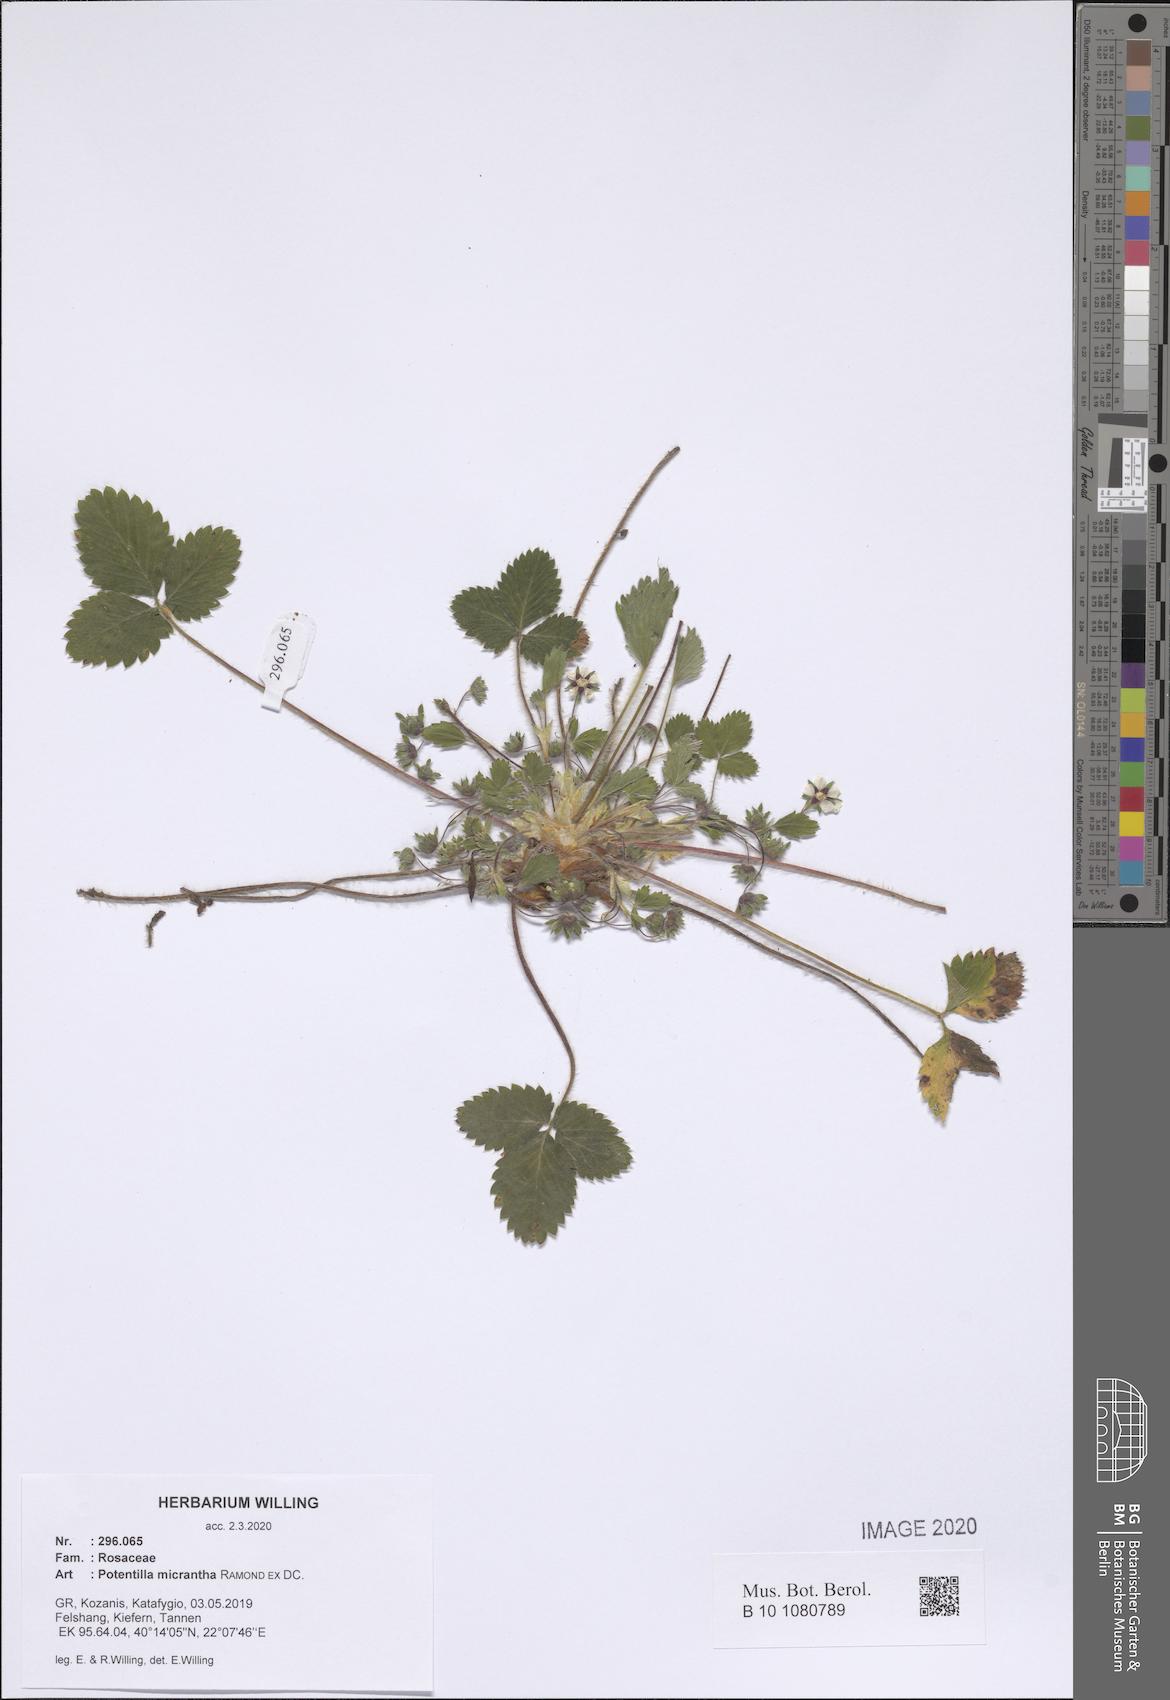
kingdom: Plantae
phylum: Tracheophyta
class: Magnoliopsida
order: Rosales
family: Rosaceae
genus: Potentilla
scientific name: Potentilla micrantha
